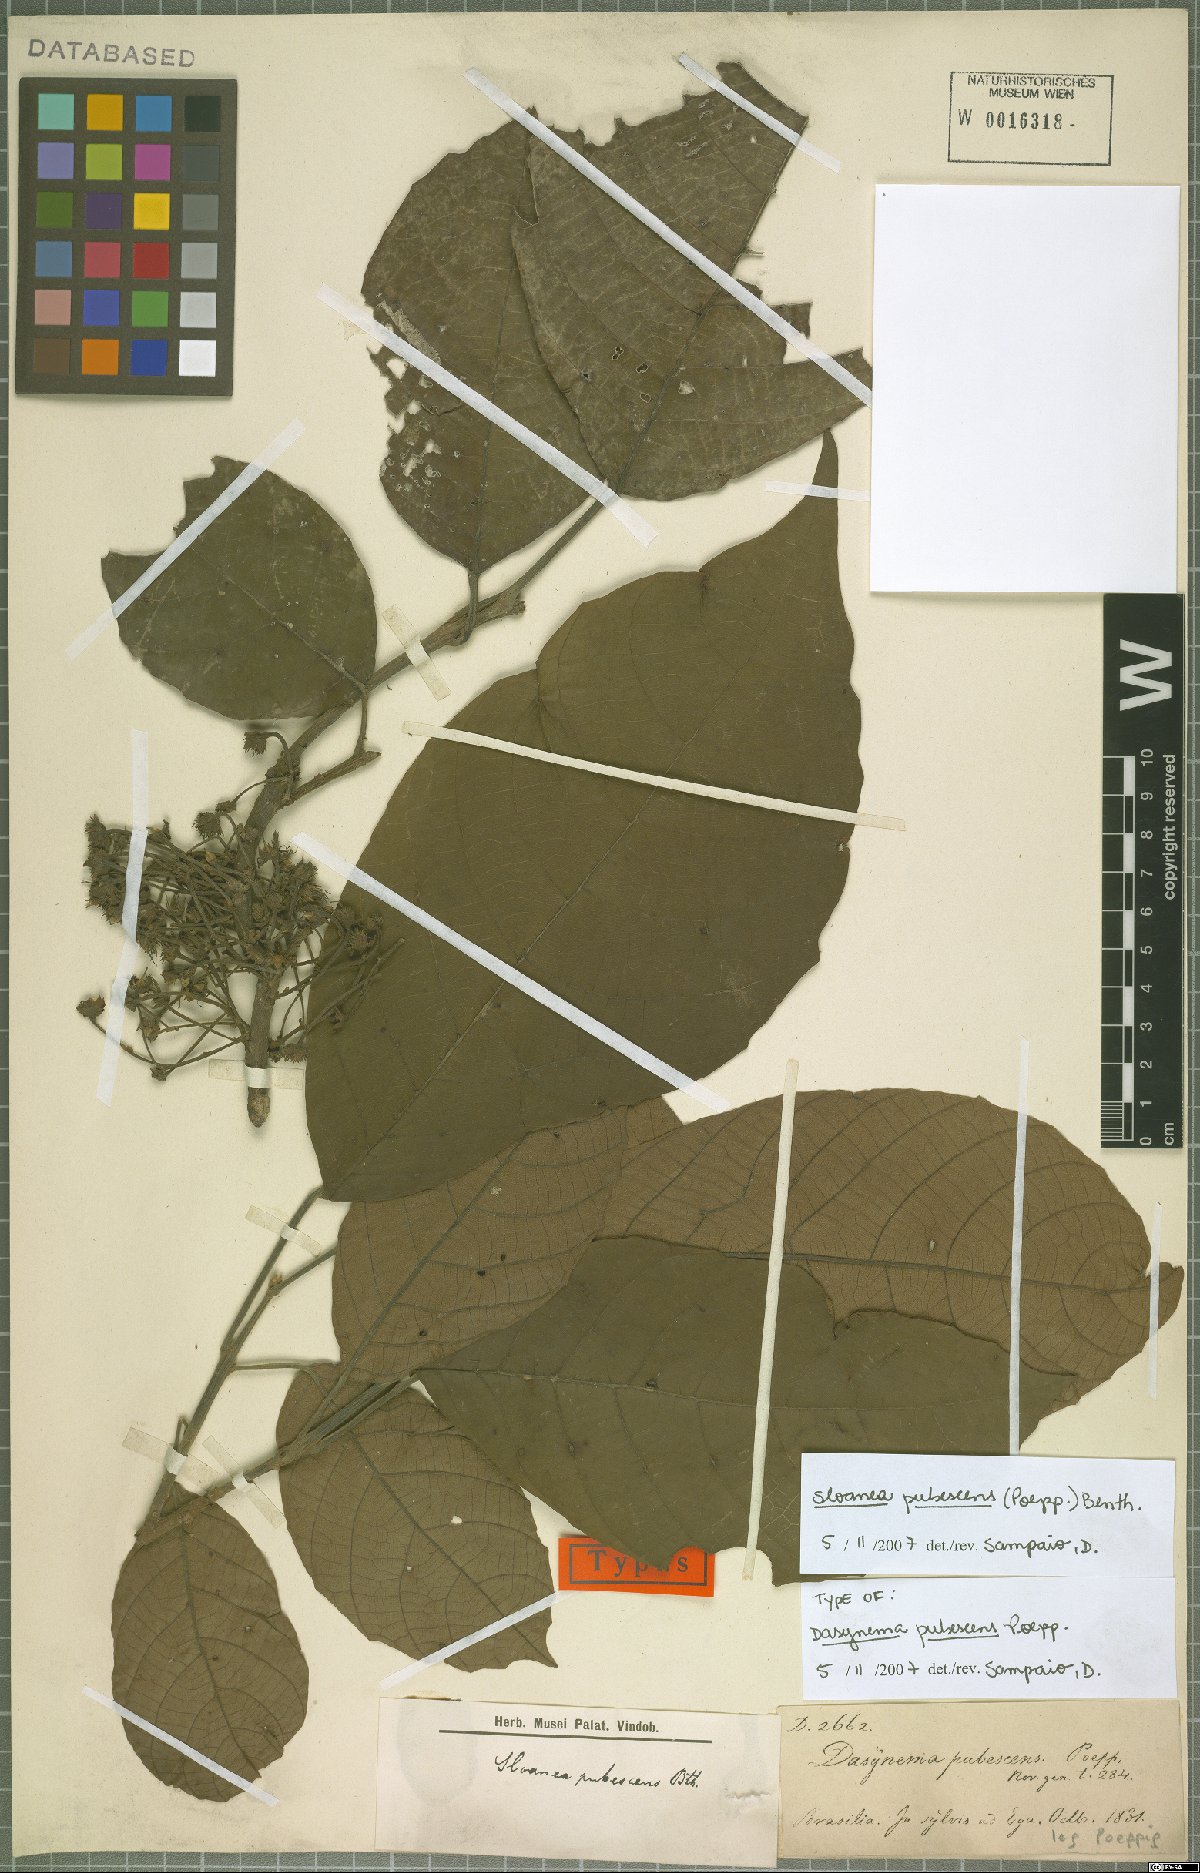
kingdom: Plantae
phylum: Tracheophyta
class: Magnoliopsida
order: Oxalidales
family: Elaeocarpaceae
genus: Sloanea
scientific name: Sloanea pubescens
